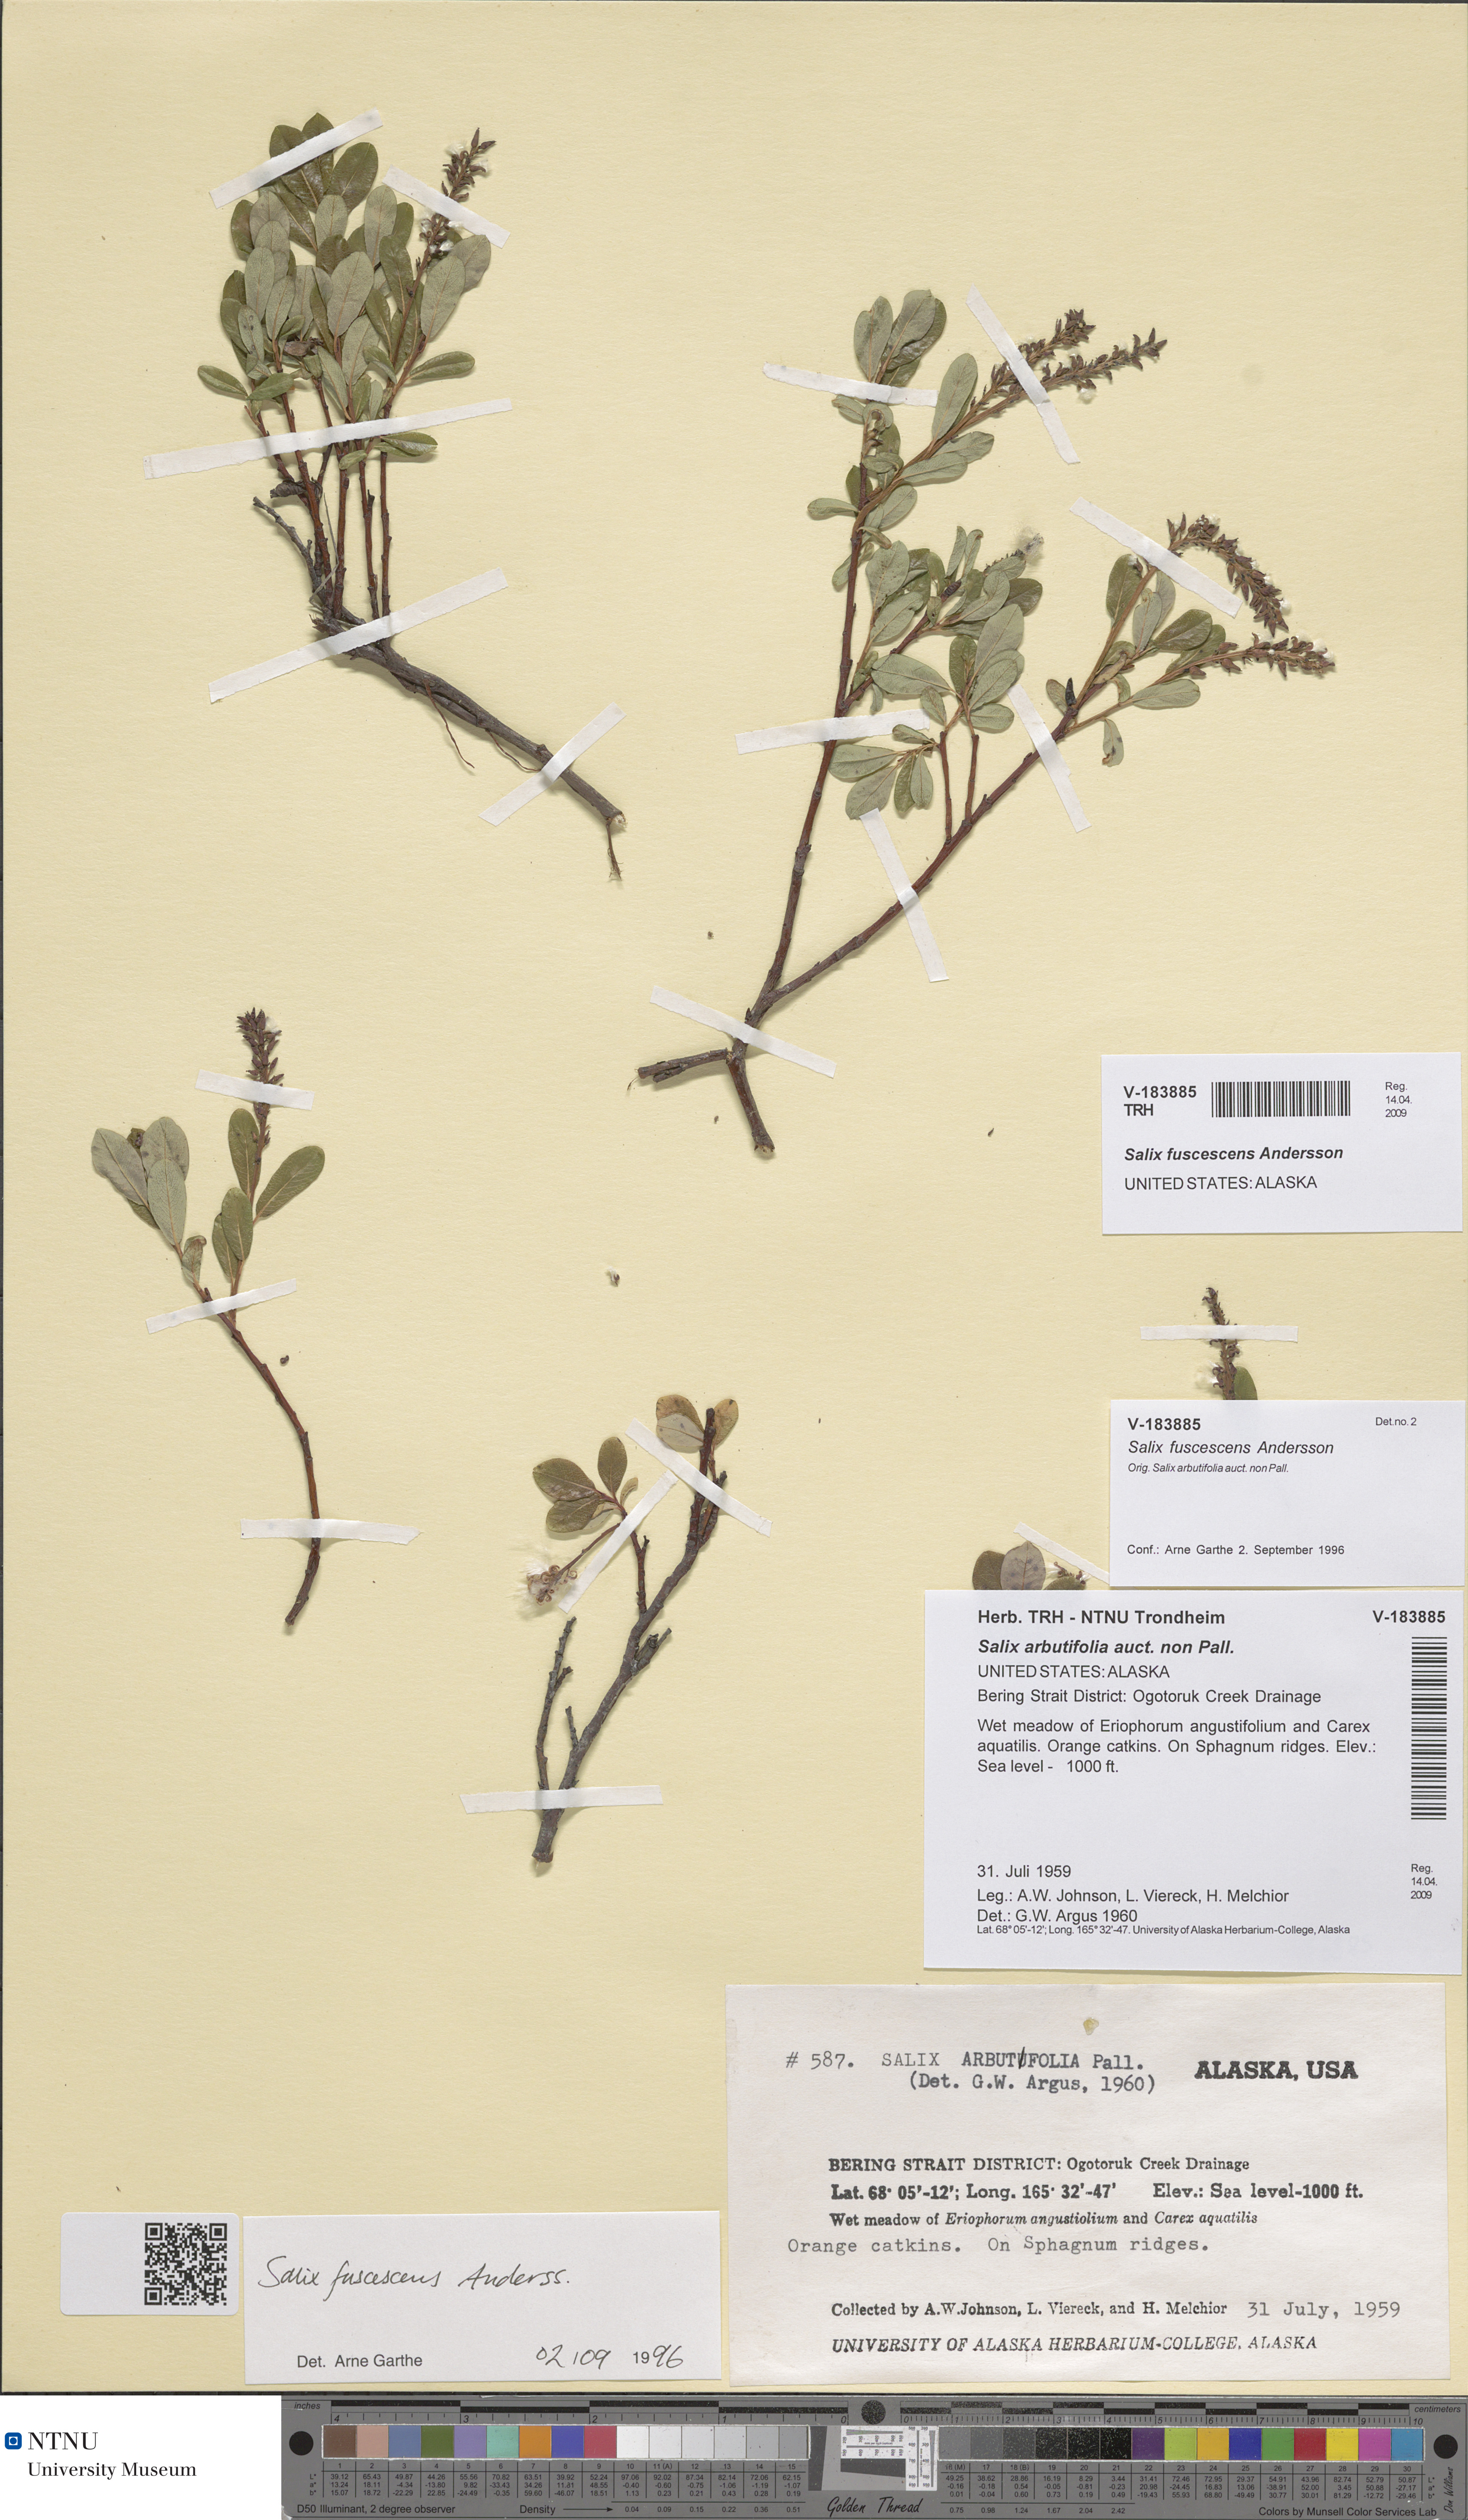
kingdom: Plantae
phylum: Tracheophyta
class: Magnoliopsida
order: Malpighiales
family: Salicaceae
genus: Salix
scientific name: Salix fuscescens
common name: Brownish willow
